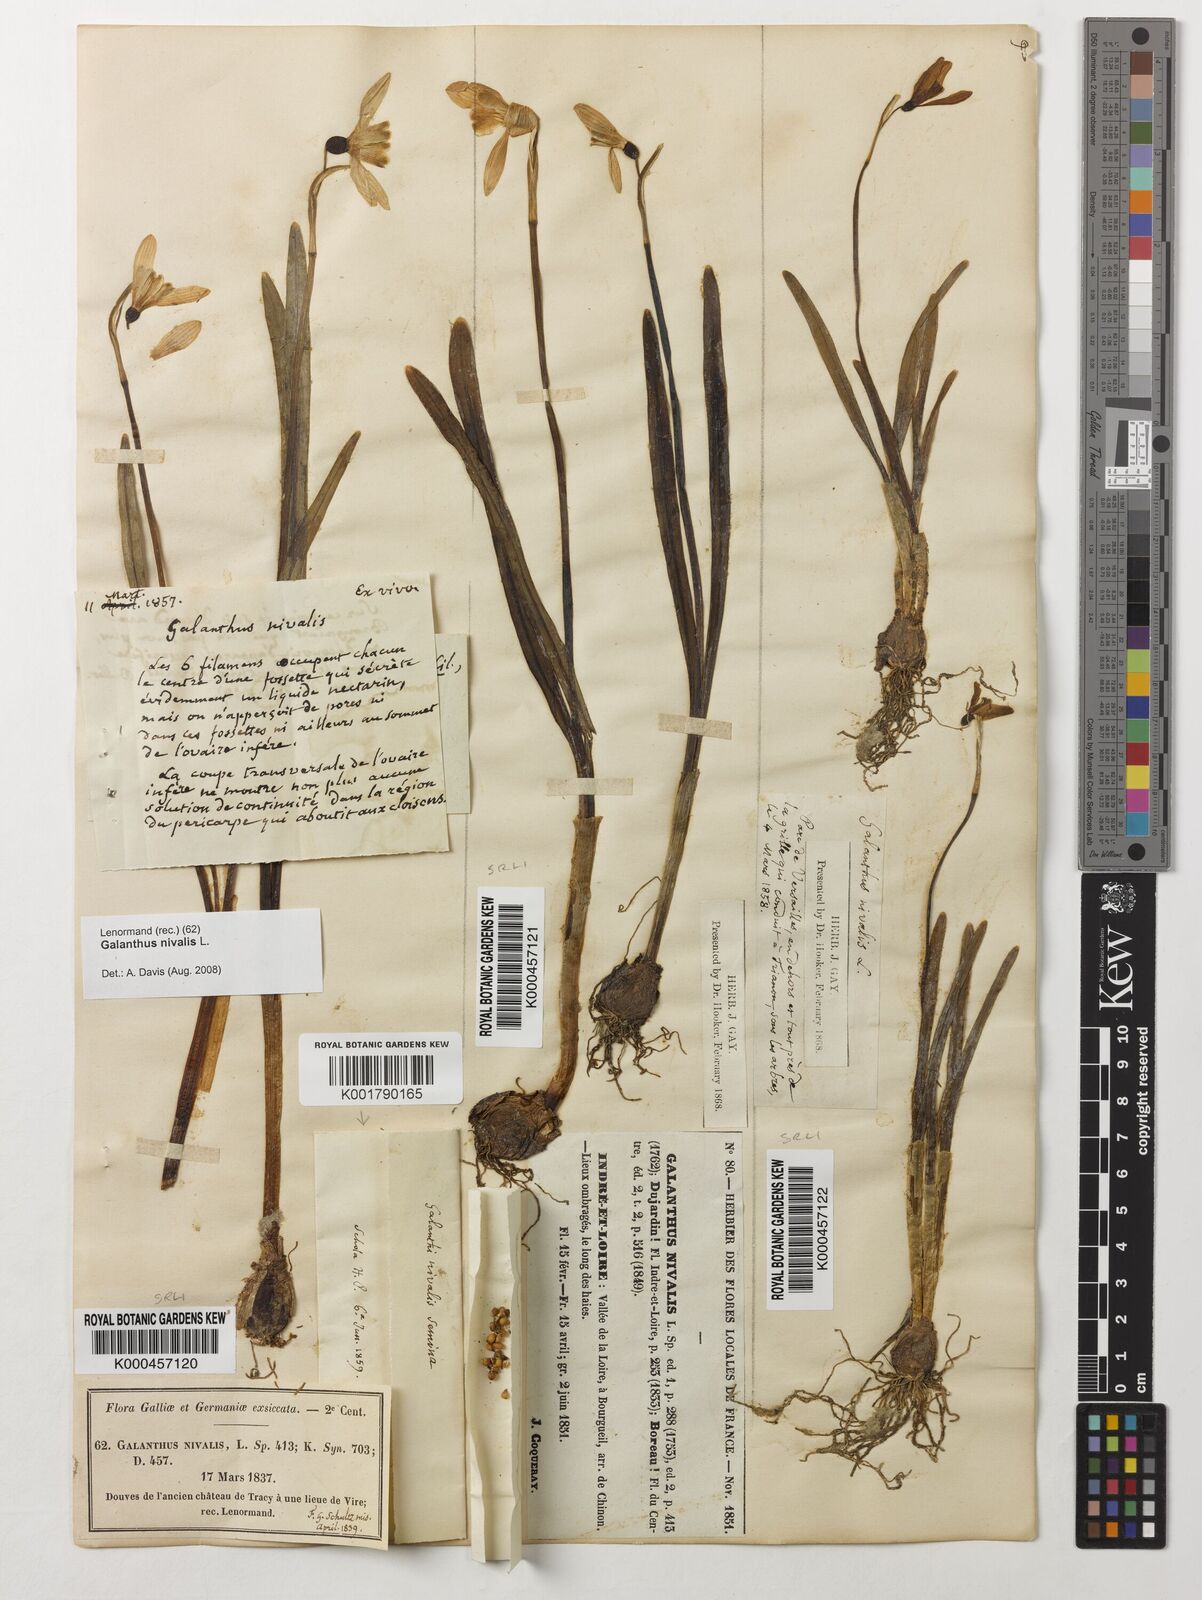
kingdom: Plantae
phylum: Tracheophyta
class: Liliopsida
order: Asparagales
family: Amaryllidaceae
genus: Galanthus
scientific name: Galanthus nivalis
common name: Snowdrop
